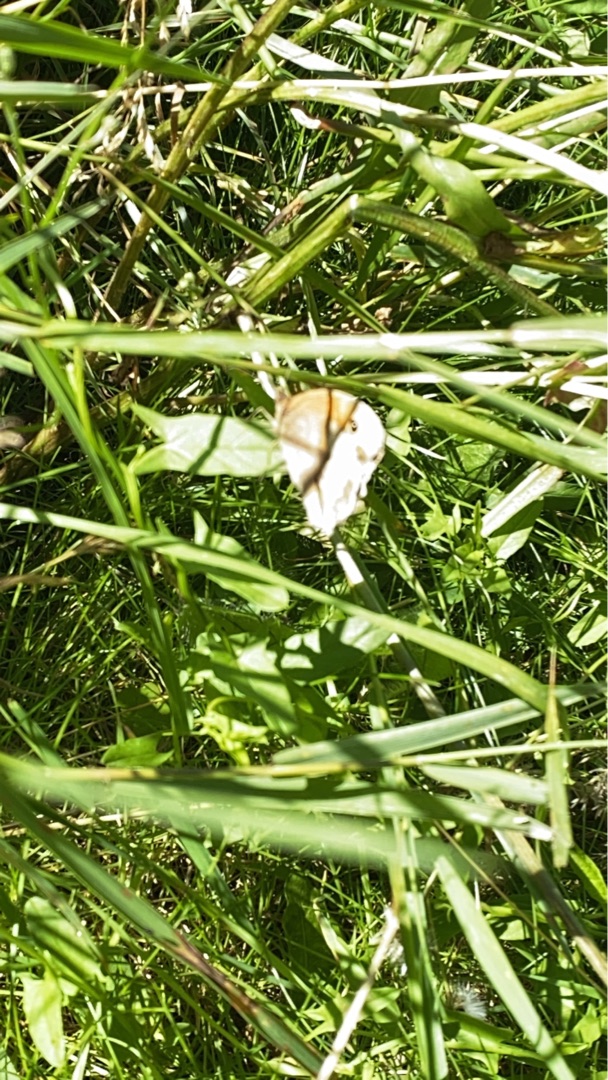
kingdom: Animalia
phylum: Arthropoda
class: Insecta
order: Lepidoptera
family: Nymphalidae
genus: Maniola
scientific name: Maniola jurtina
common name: Græsrandøje
